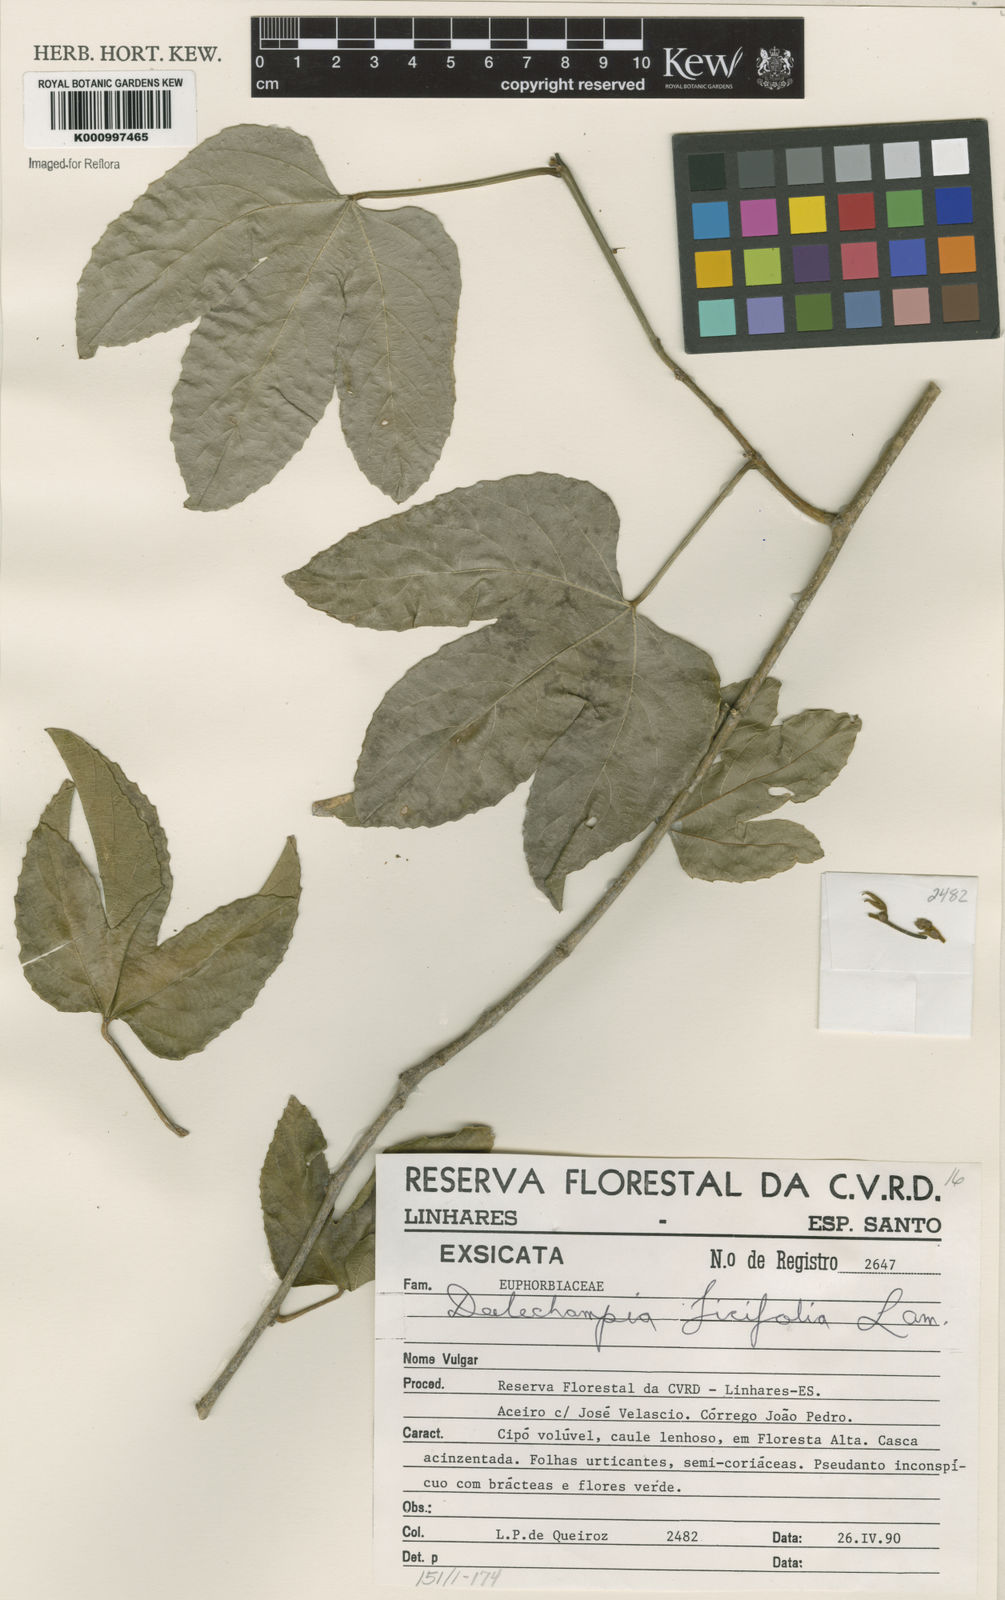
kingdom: Plantae
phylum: Tracheophyta
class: Magnoliopsida
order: Malpighiales
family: Euphorbiaceae
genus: Dalechampia
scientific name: Dalechampia ficifolia
